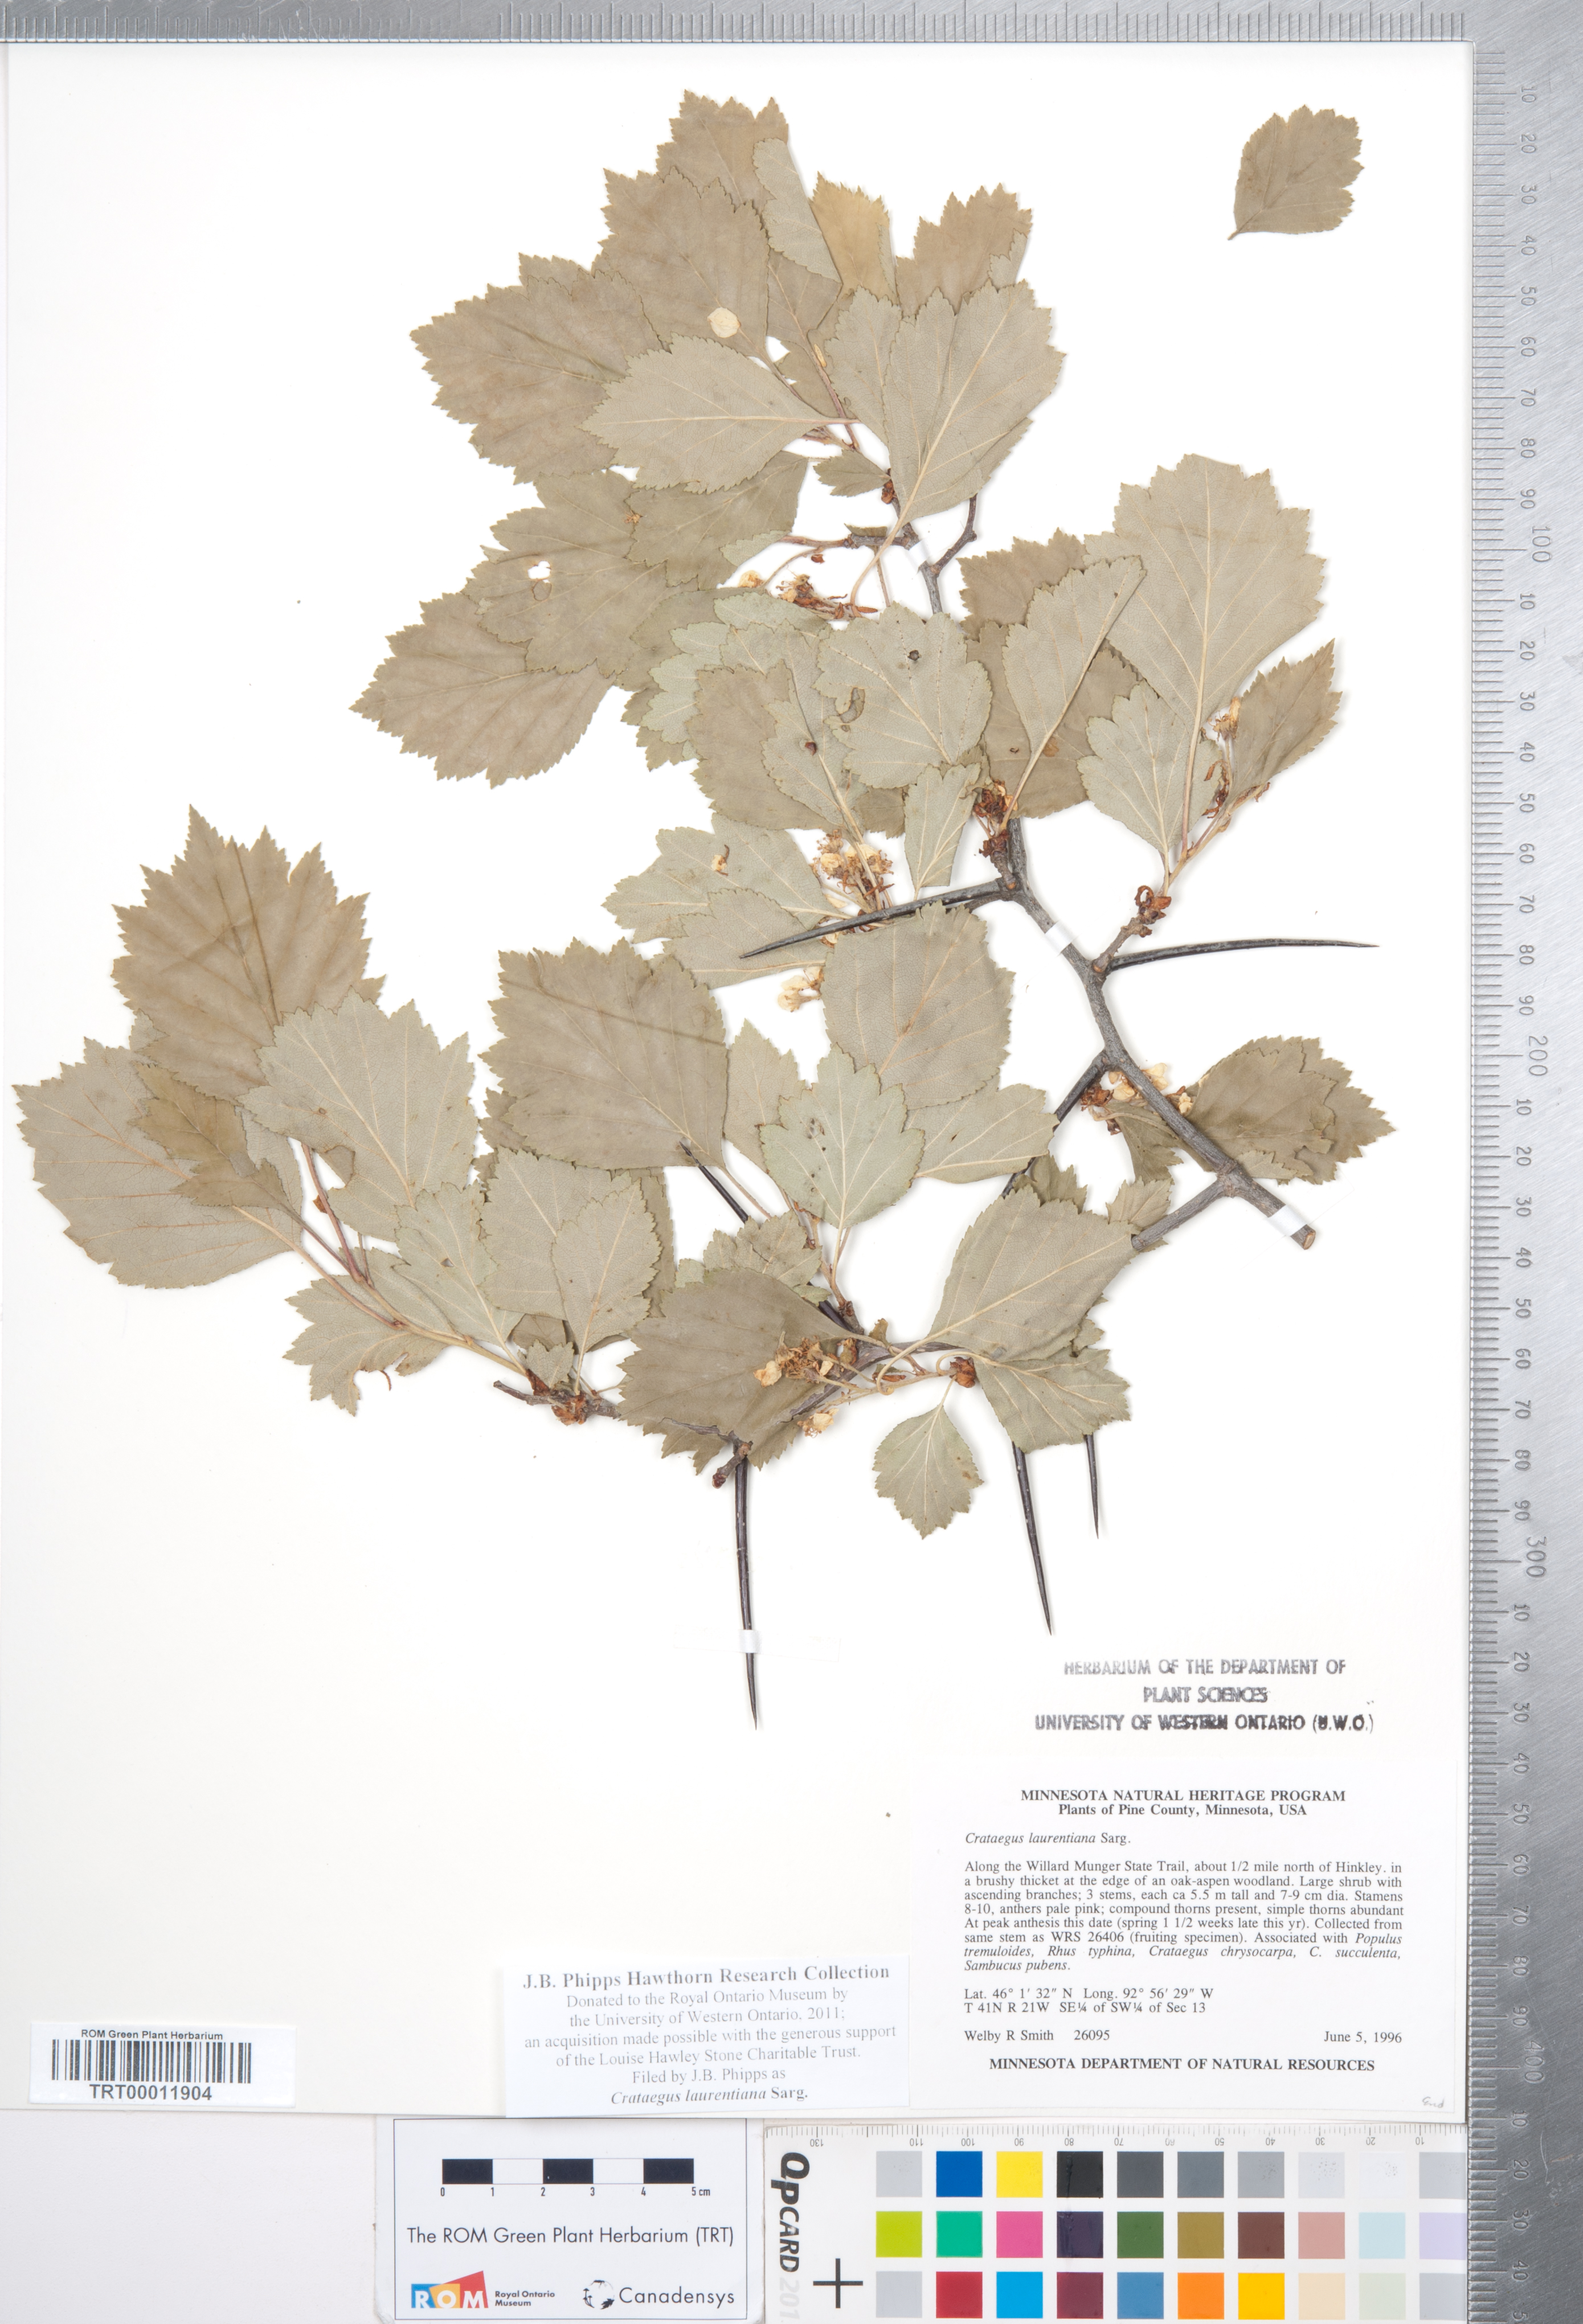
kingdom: Plantae
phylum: Tracheophyta
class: Magnoliopsida
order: Rosales
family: Rosaceae
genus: Crataegus
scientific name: Crataegus jonesiae
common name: Jones' hawthorn
